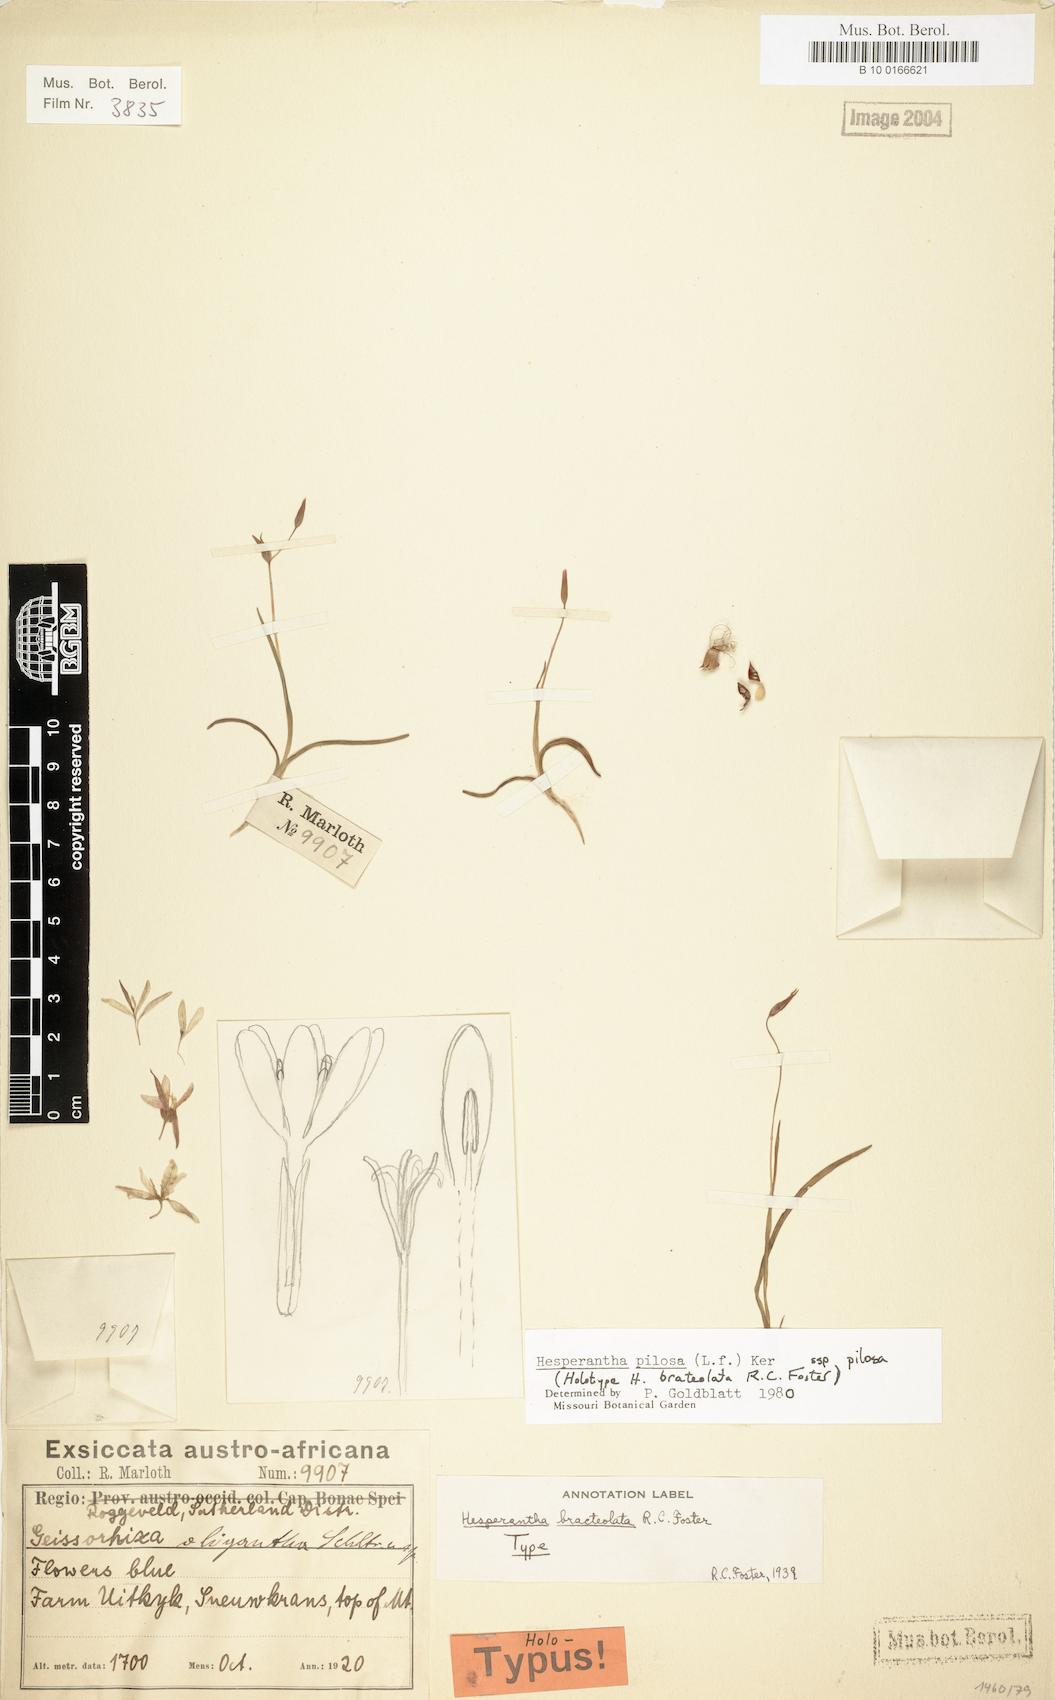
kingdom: Plantae
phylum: Tracheophyta
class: Liliopsida
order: Asparagales
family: Iridaceae
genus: Hesperantha
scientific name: Hesperantha pilosa
